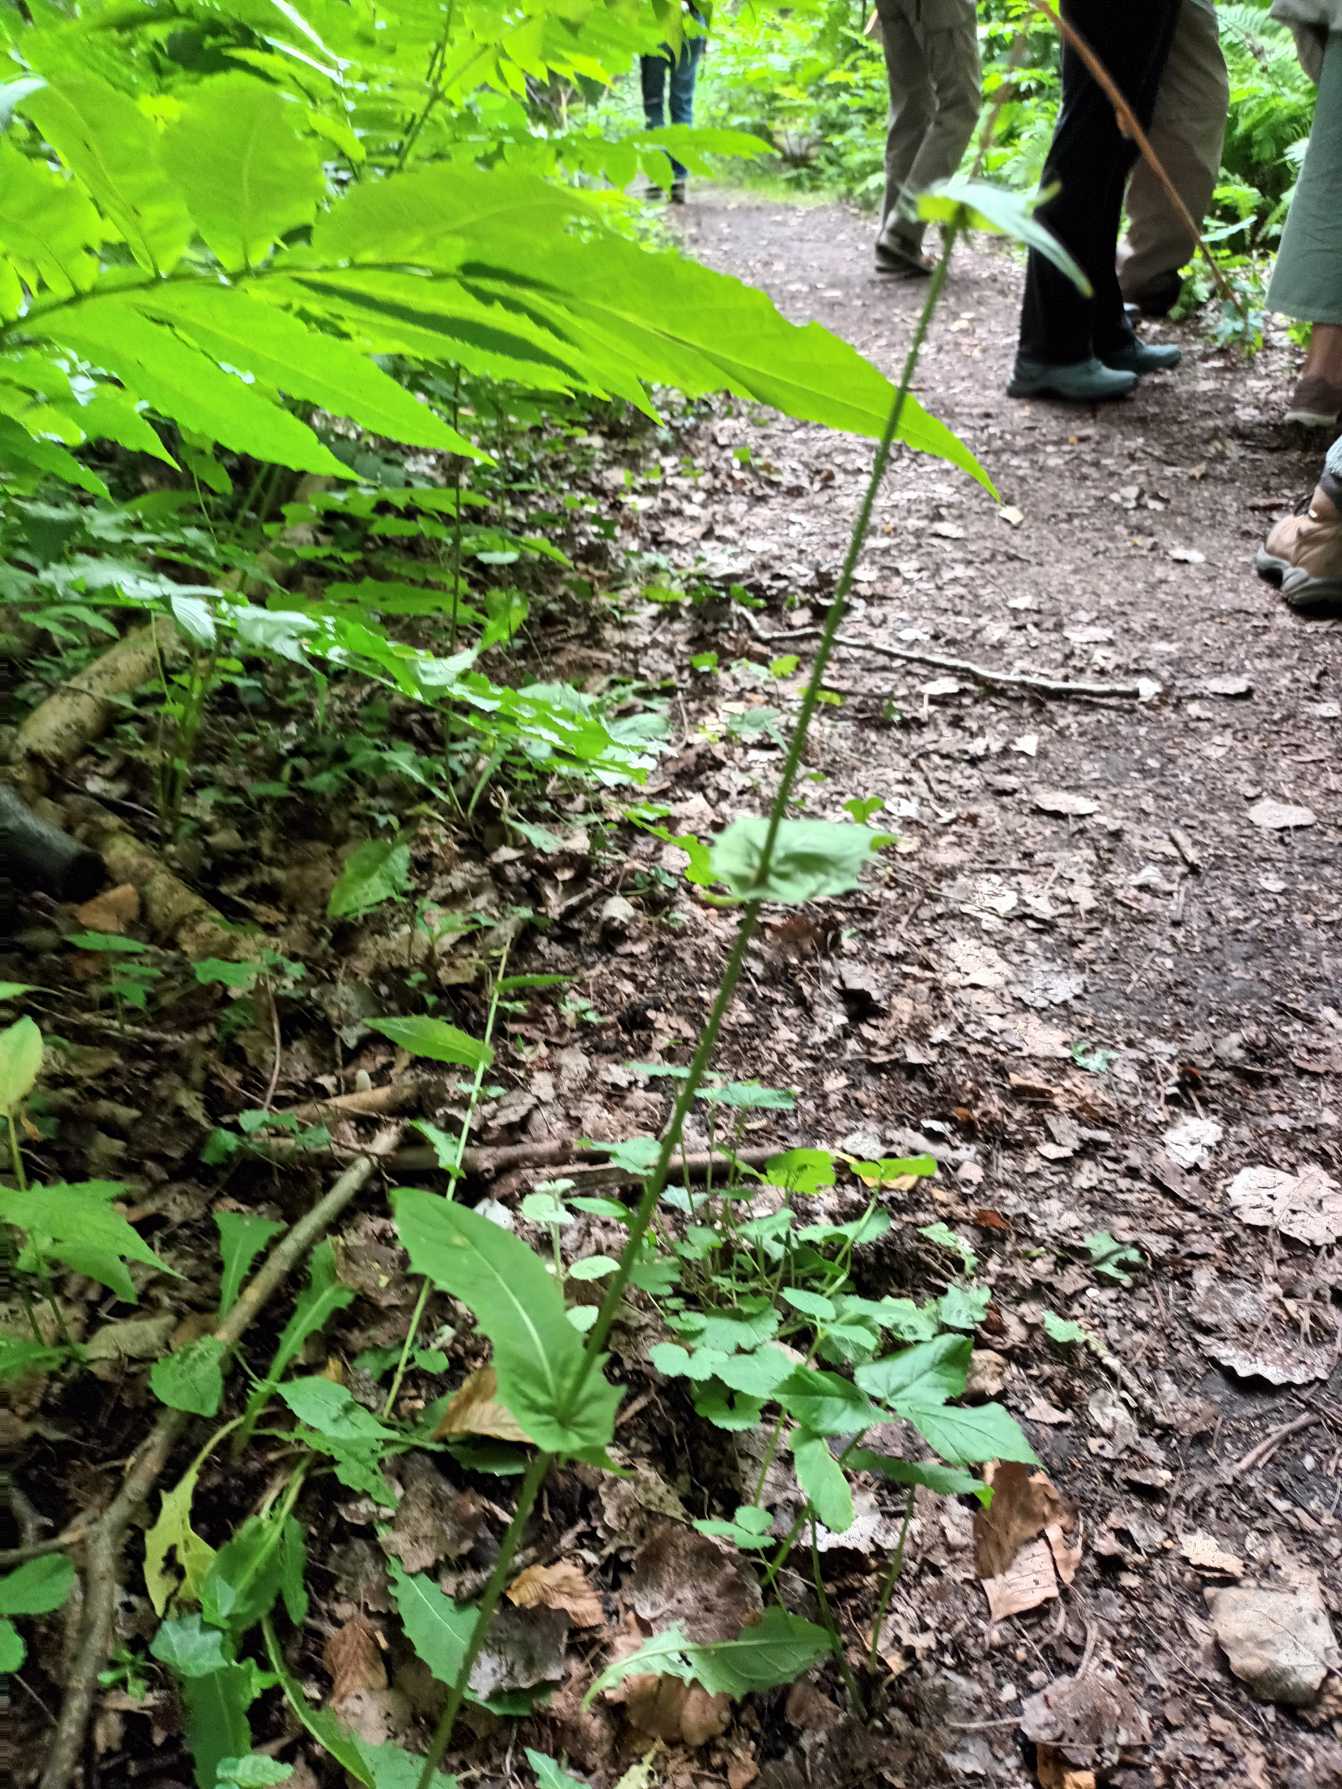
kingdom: Plantae
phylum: Tracheophyta
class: Magnoliopsida
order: Asterales
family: Asteraceae
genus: Crepis
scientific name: Crepis paludosa
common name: Kær-høgeskæg
